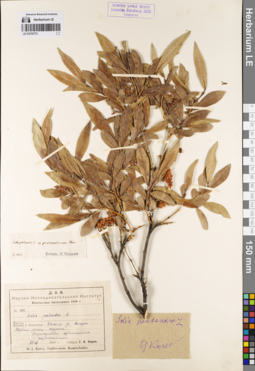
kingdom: Plantae
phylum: Tracheophyta
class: Magnoliopsida
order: Malpighiales
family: Salicaceae
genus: Salix
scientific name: Salix pseudopentandra
